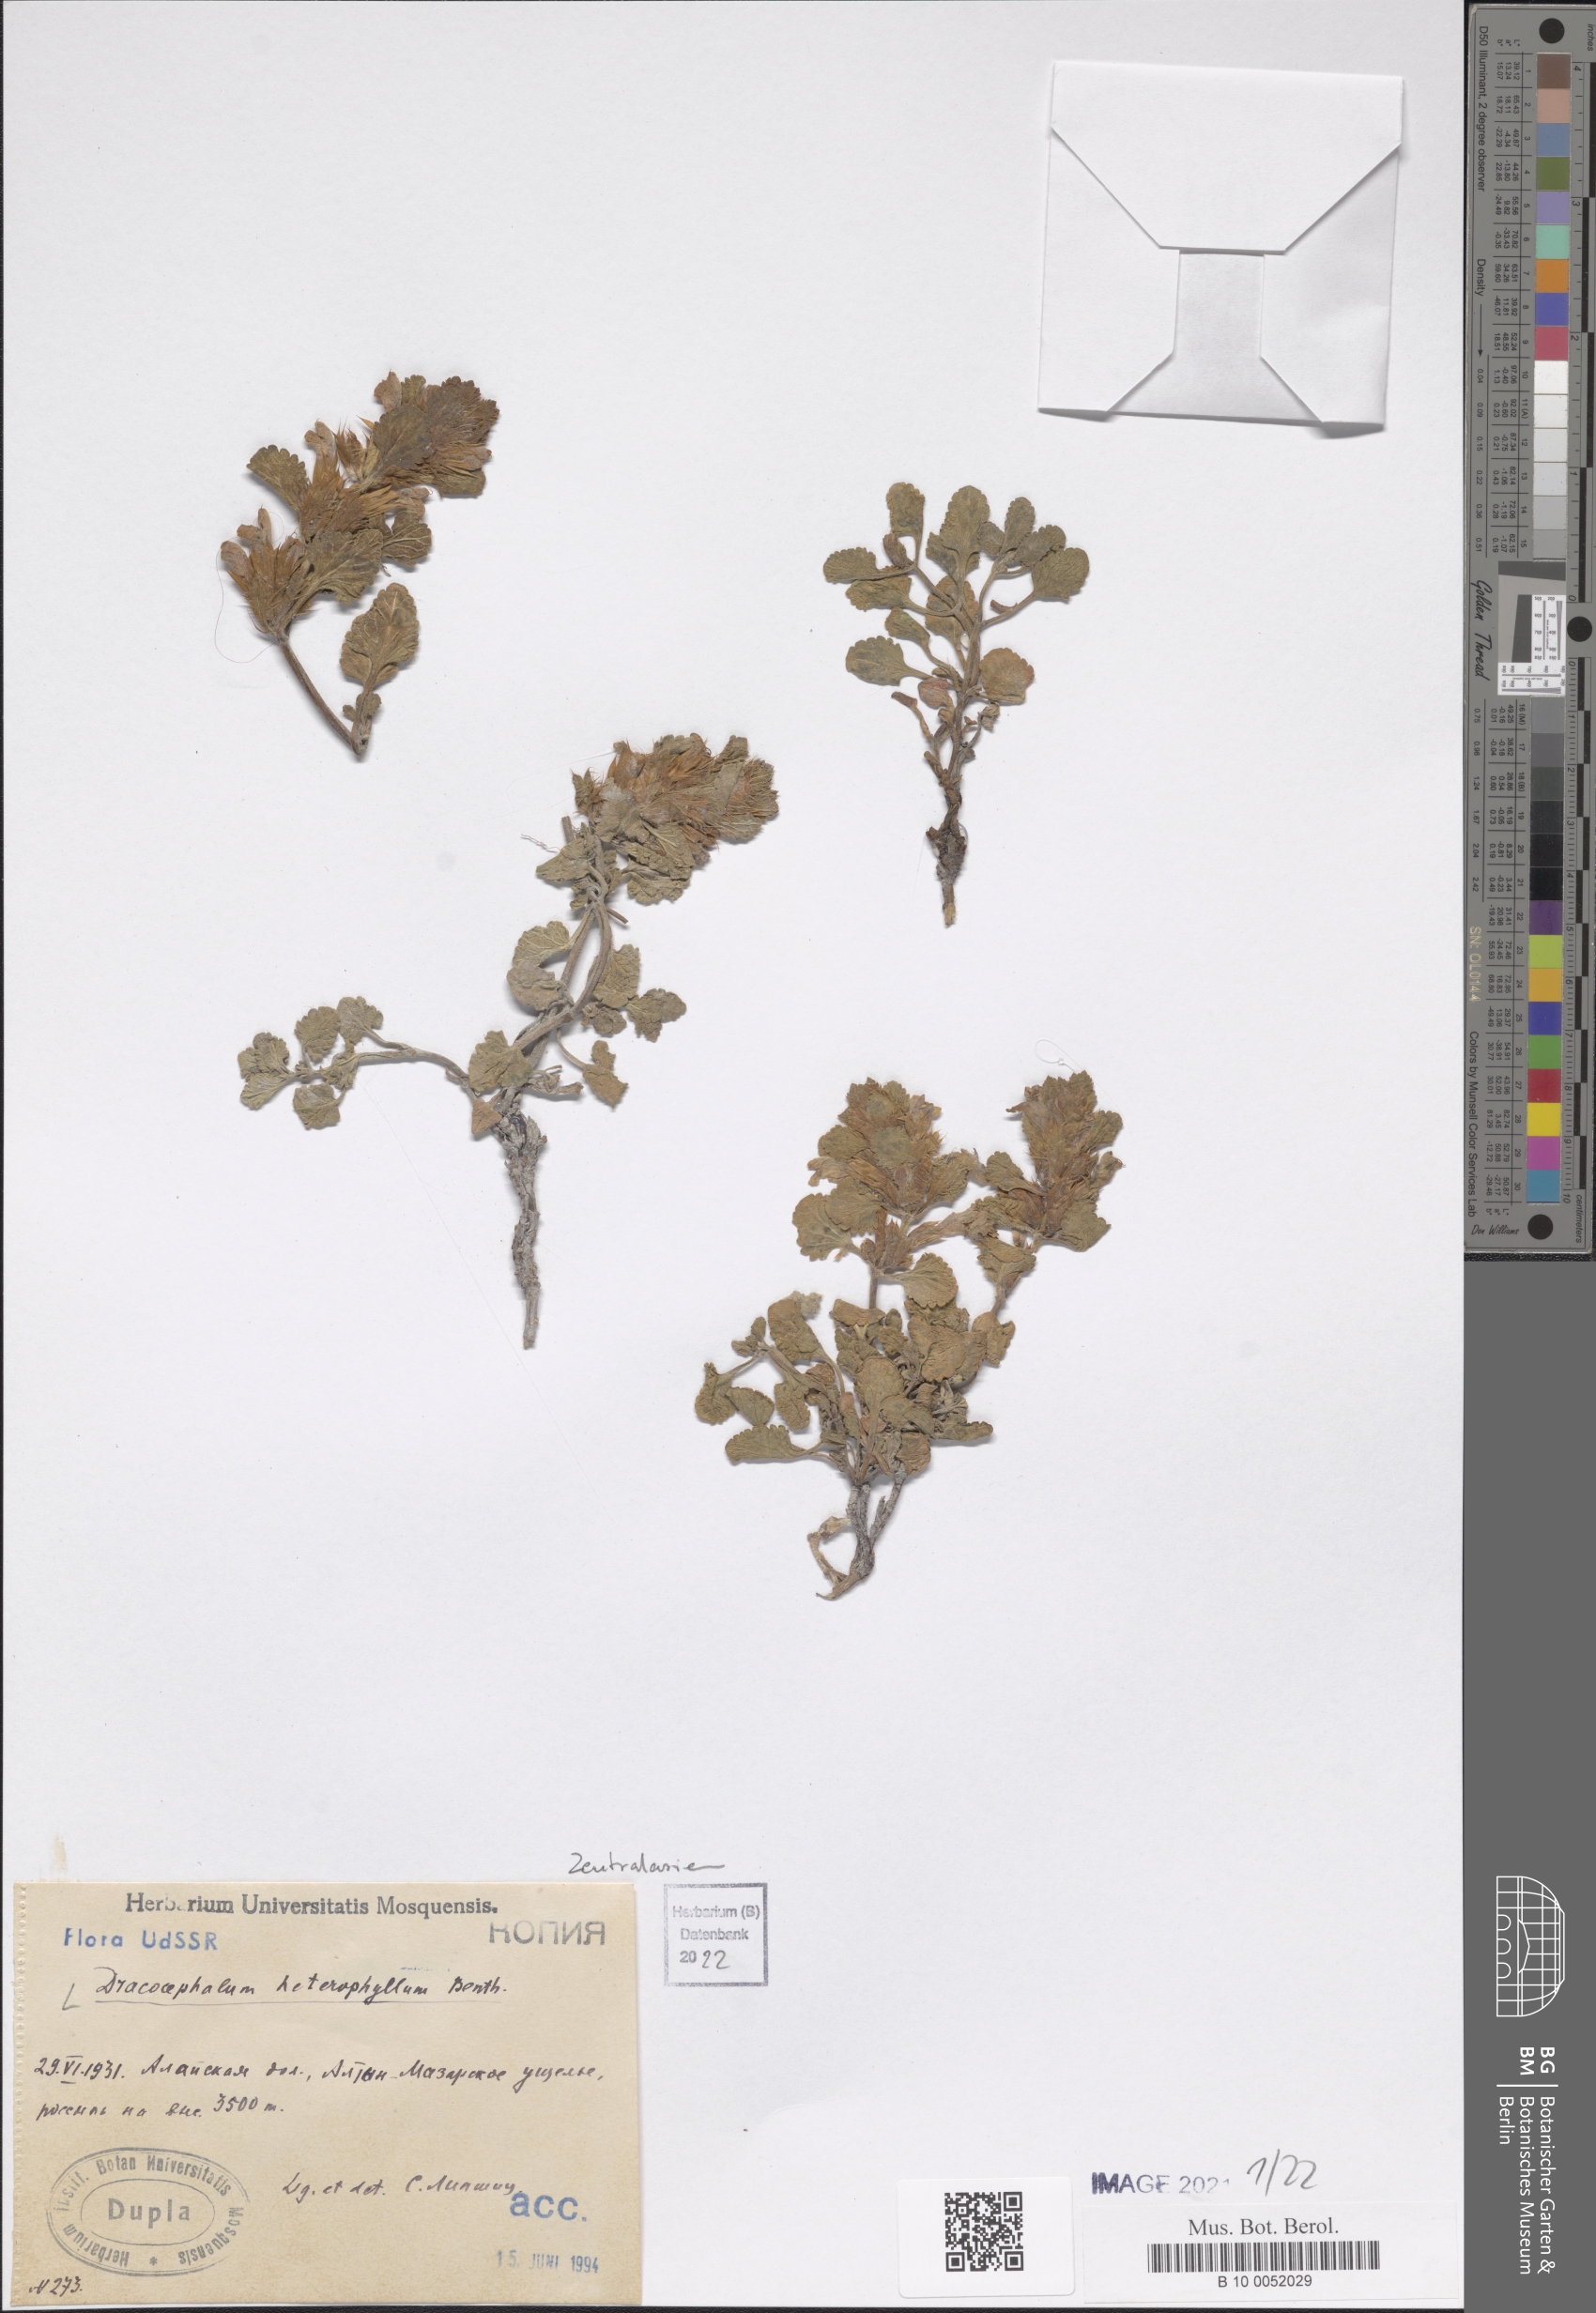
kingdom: Plantae
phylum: Tracheophyta
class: Magnoliopsida
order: Lamiales
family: Lamiaceae
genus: Dracocephalum
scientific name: Dracocephalum heterophyllum
